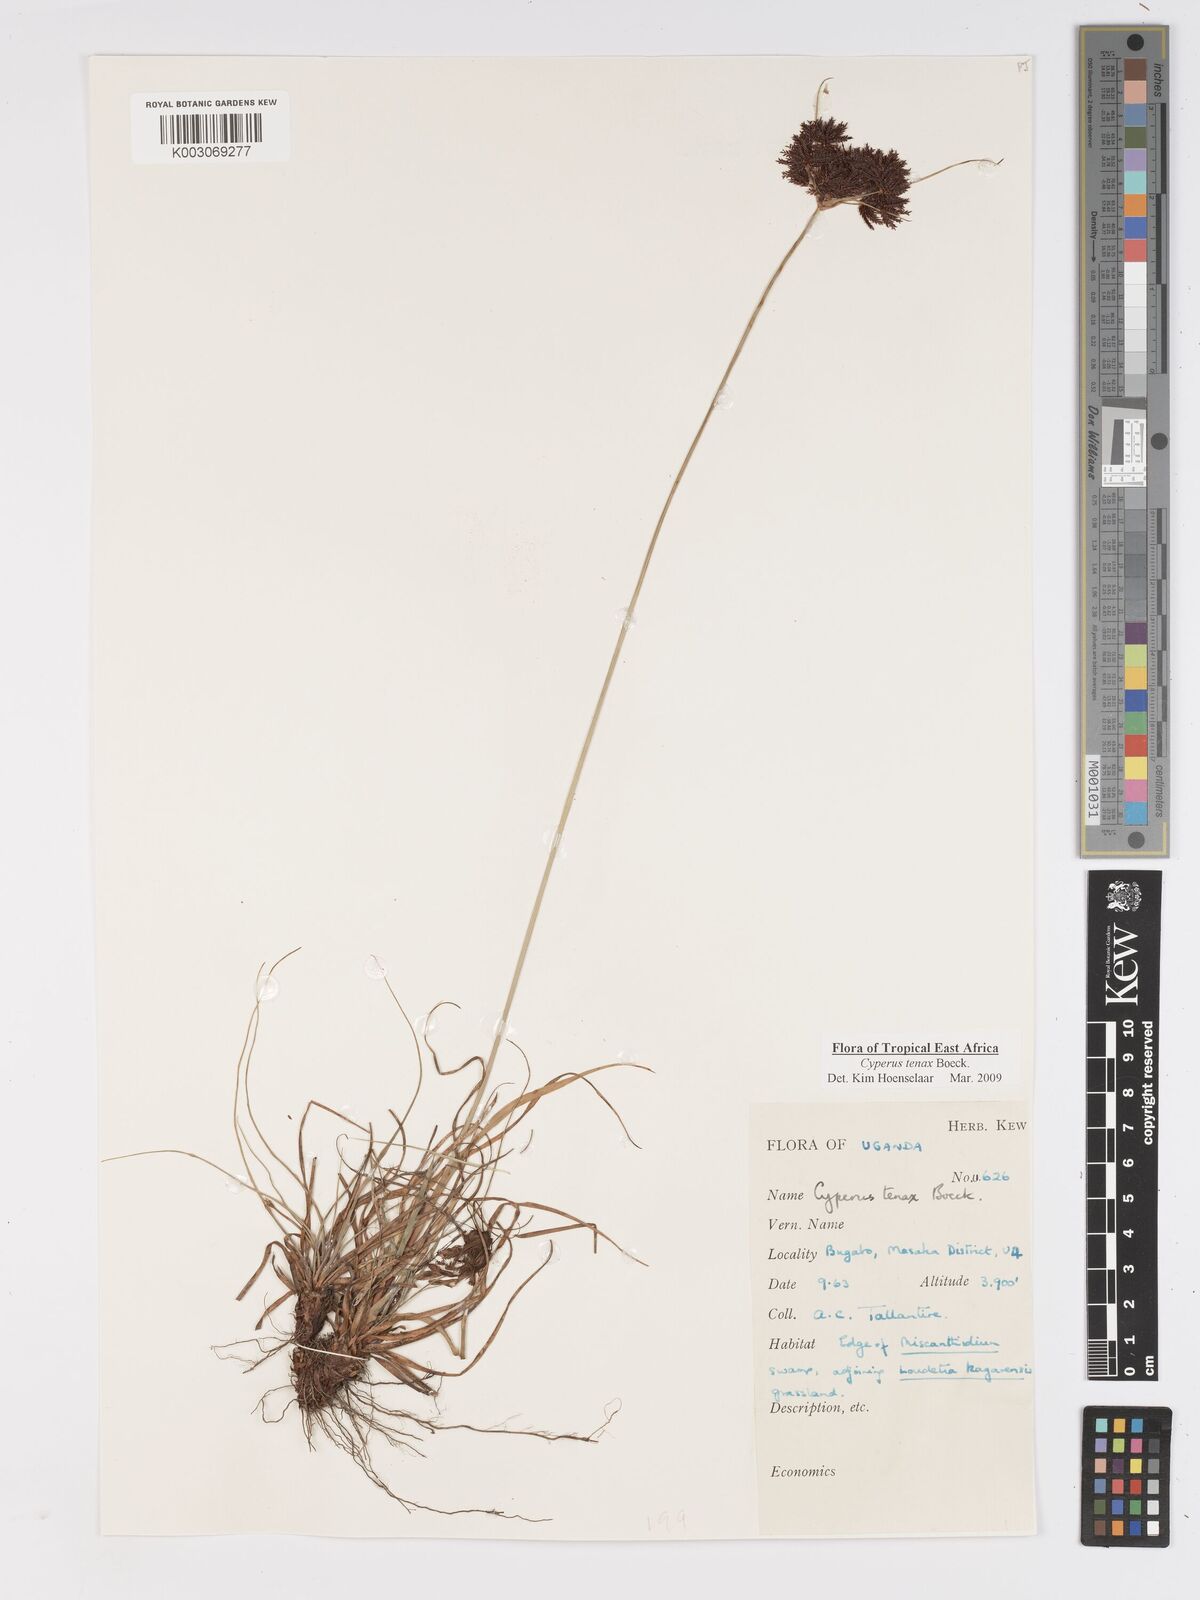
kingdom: Plantae
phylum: Tracheophyta
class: Liliopsida
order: Poales
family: Cyperaceae
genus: Cyperus
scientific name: Cyperus tenax
